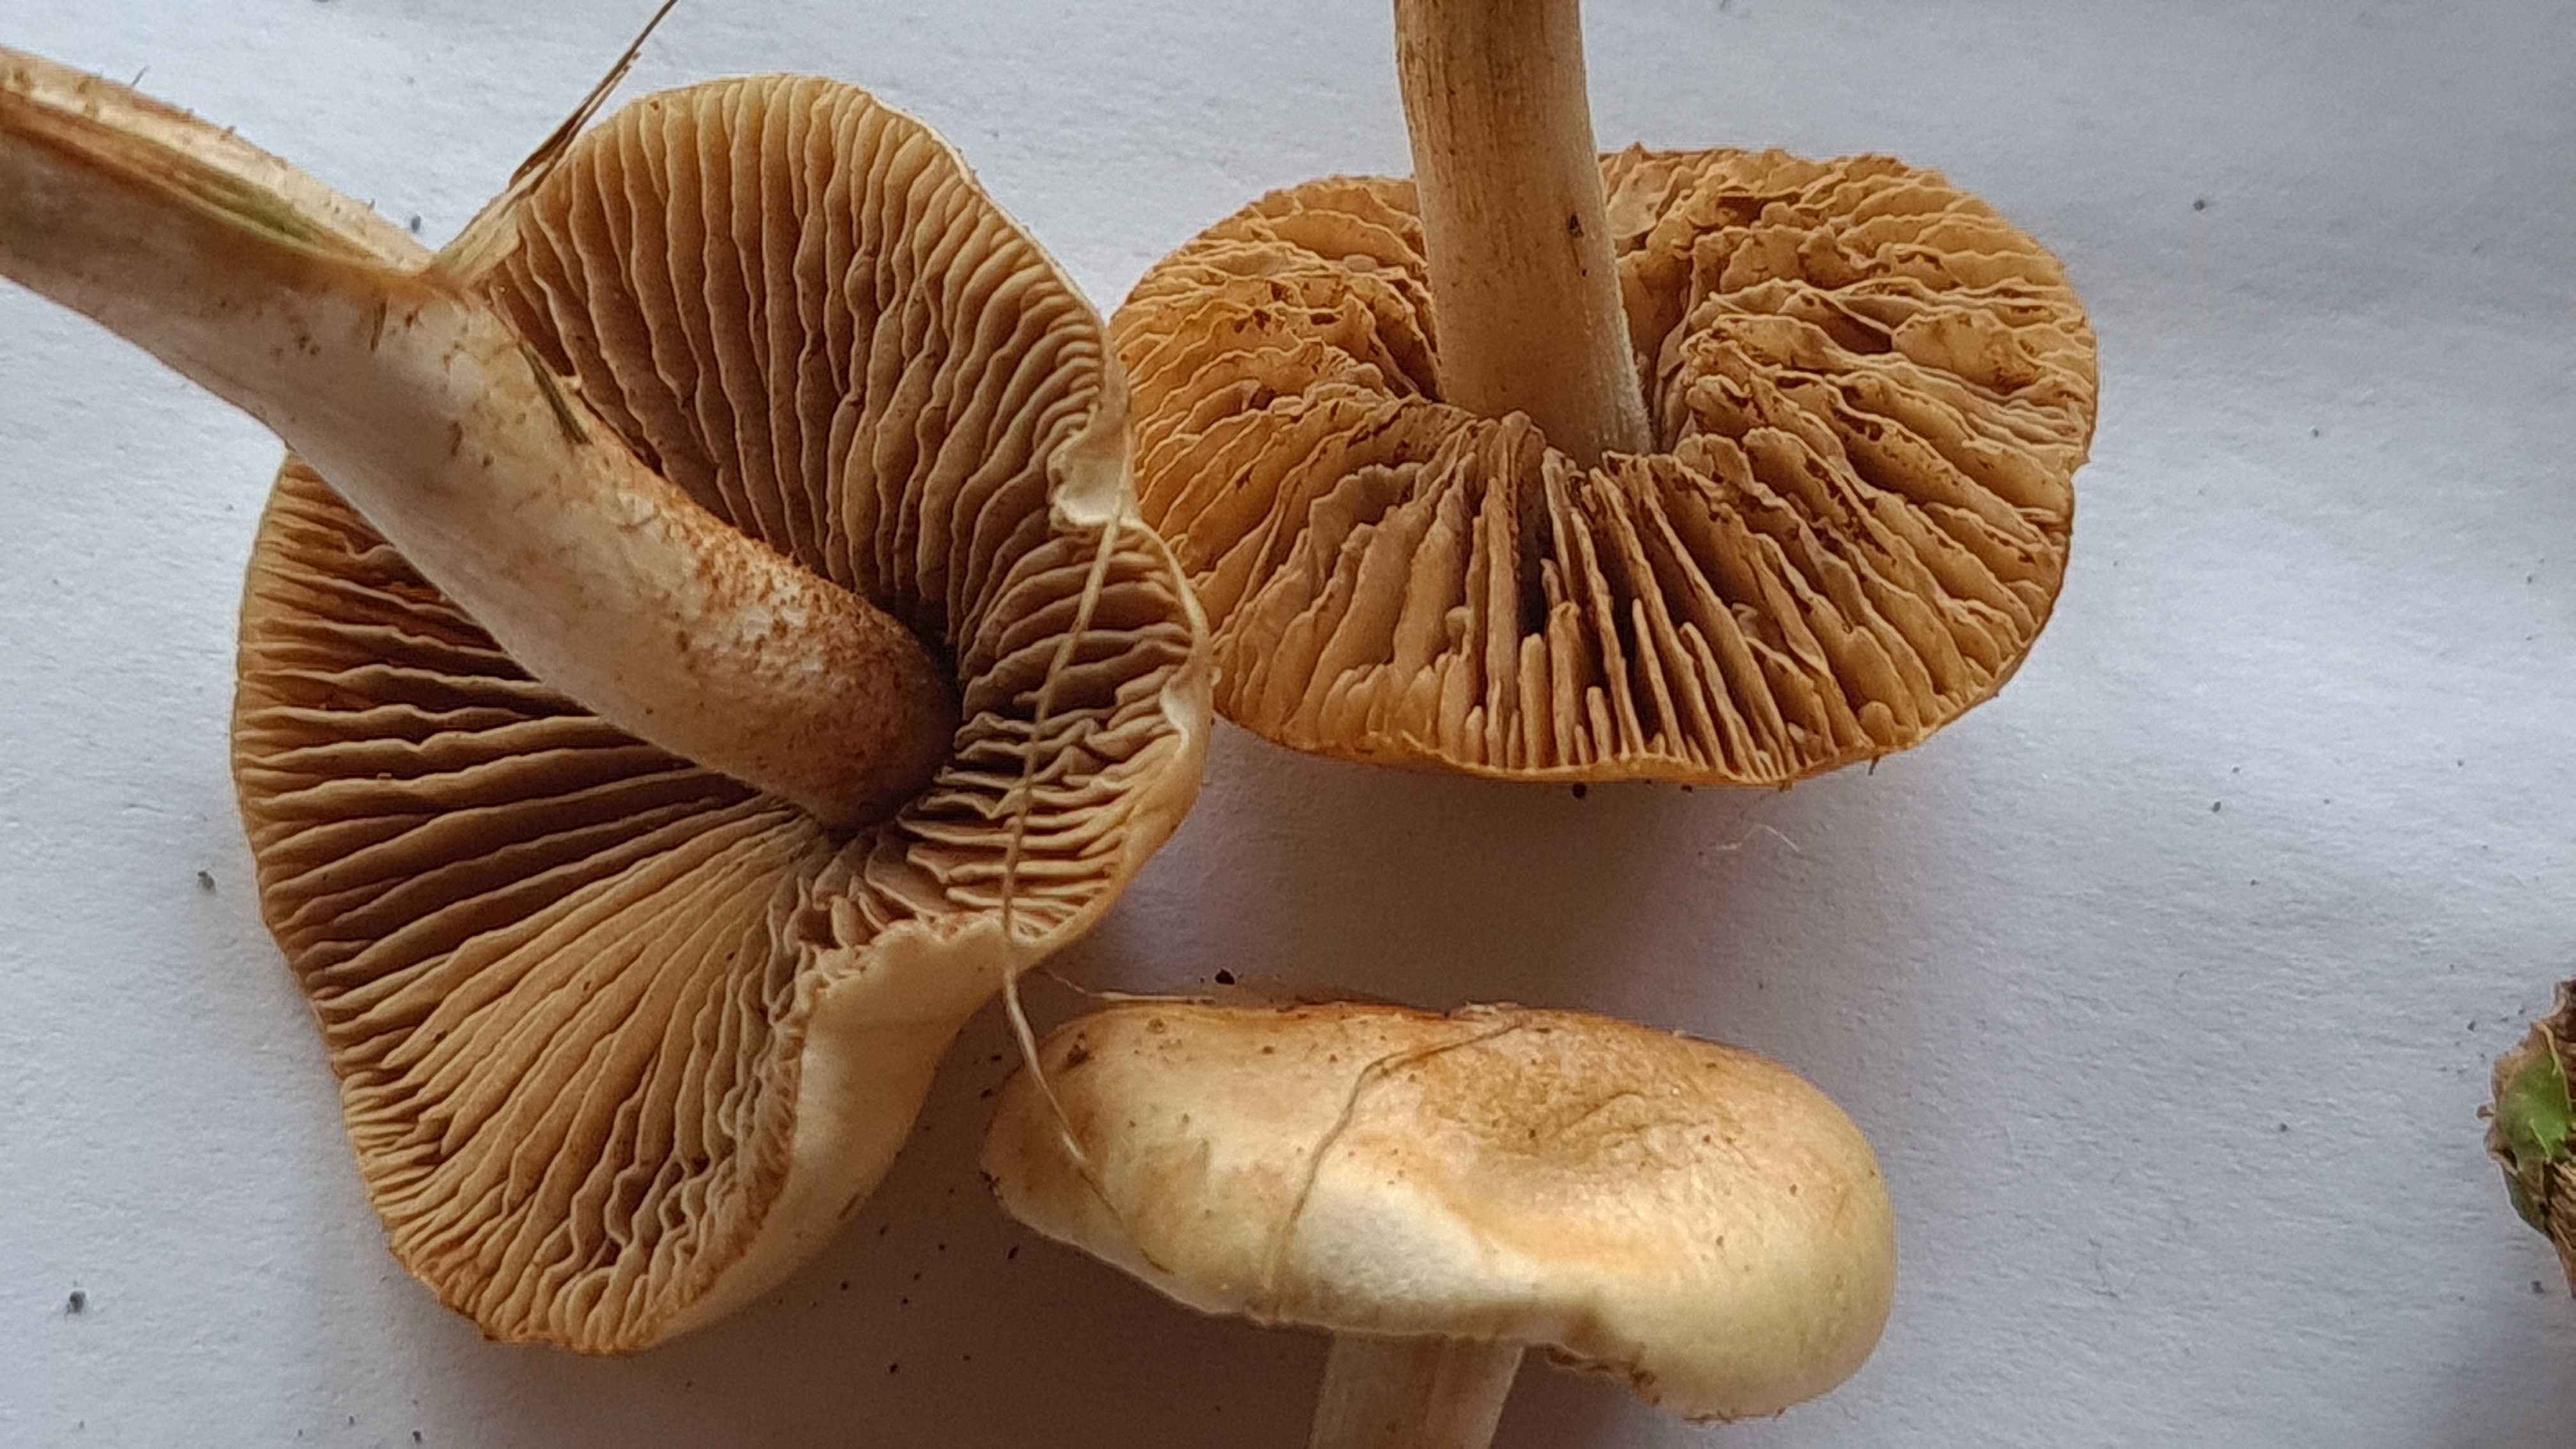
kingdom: Fungi
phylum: Basidiomycota
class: Agaricomycetes
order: Agaricales
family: Hymenogastraceae
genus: Hebeloma
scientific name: Hebeloma sacchariolens
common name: sødtduftende tåreblad
